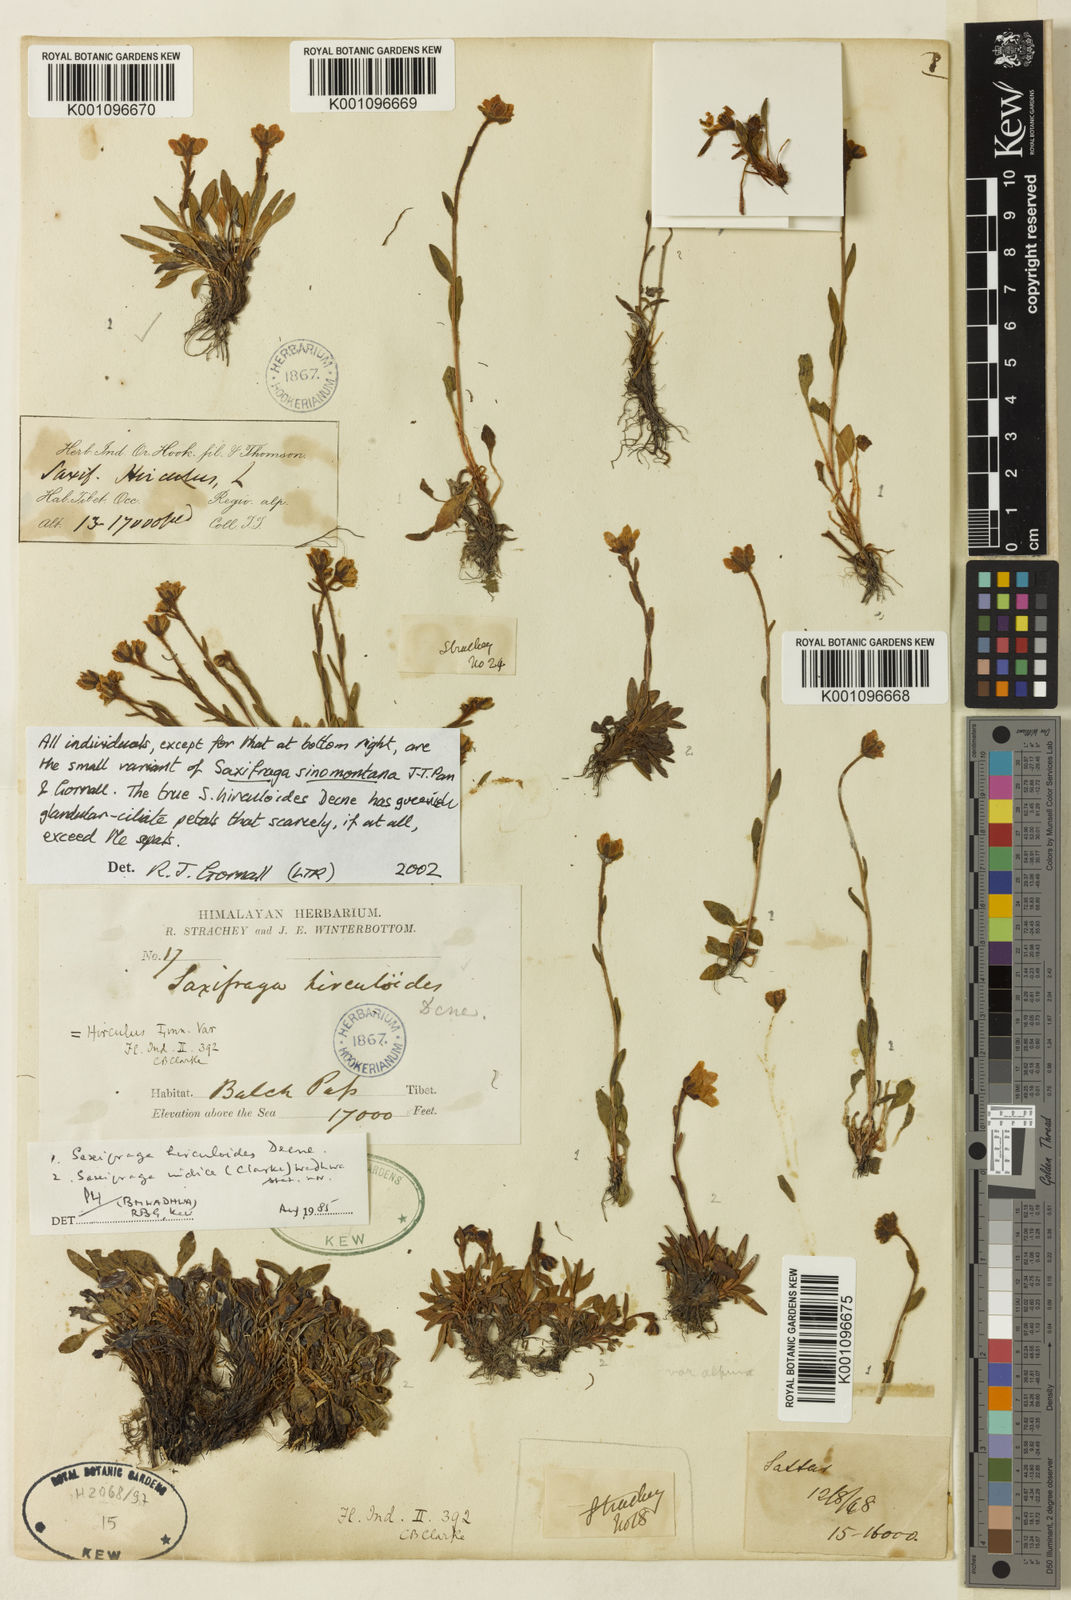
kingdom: Plantae
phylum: Tracheophyta
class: Magnoliopsida
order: Saxifragales
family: Saxifragaceae
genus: Saxifraga
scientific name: Saxifraga
